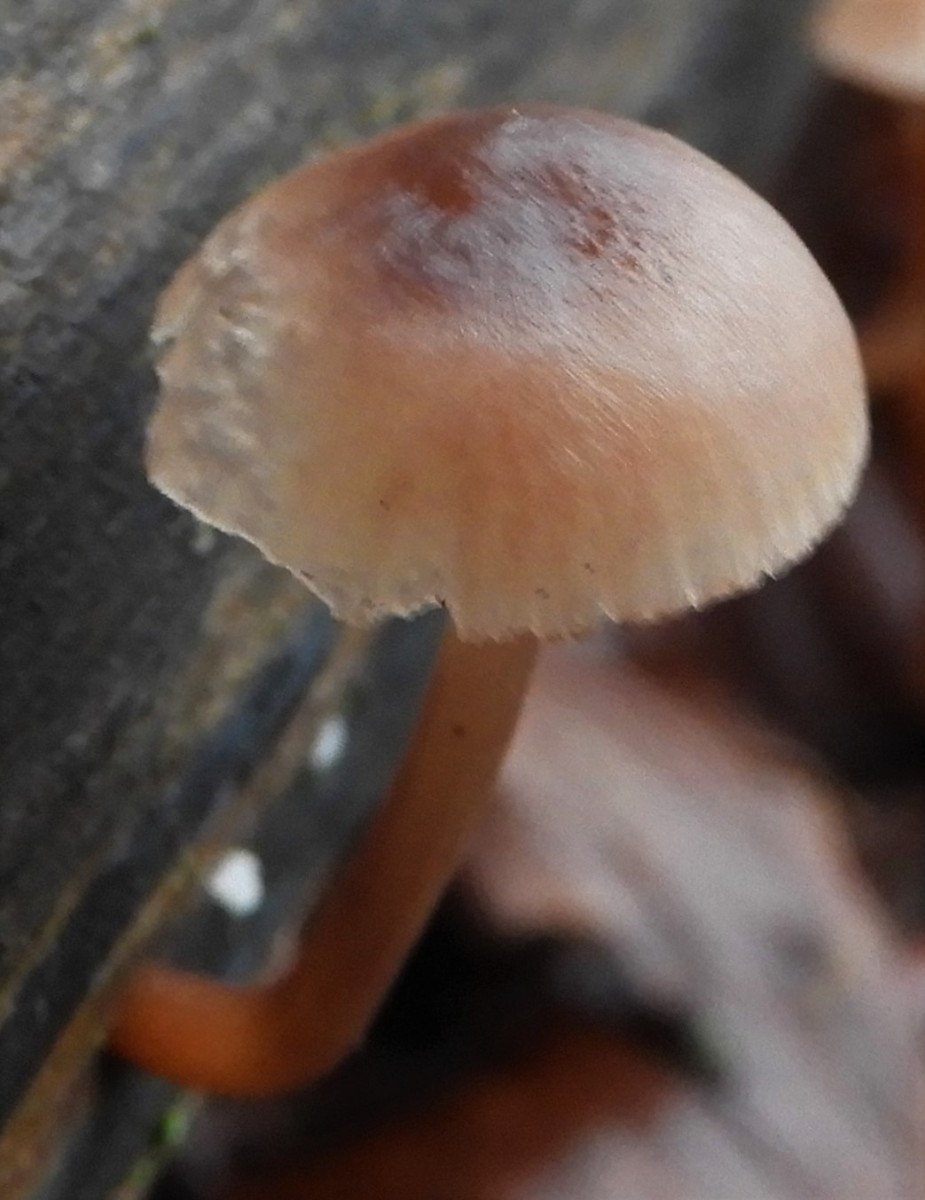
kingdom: Fungi
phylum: Basidiomycota
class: Agaricomycetes
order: Agaricales
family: Omphalotaceae
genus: Collybiopsis
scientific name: Collybiopsis ramealis
